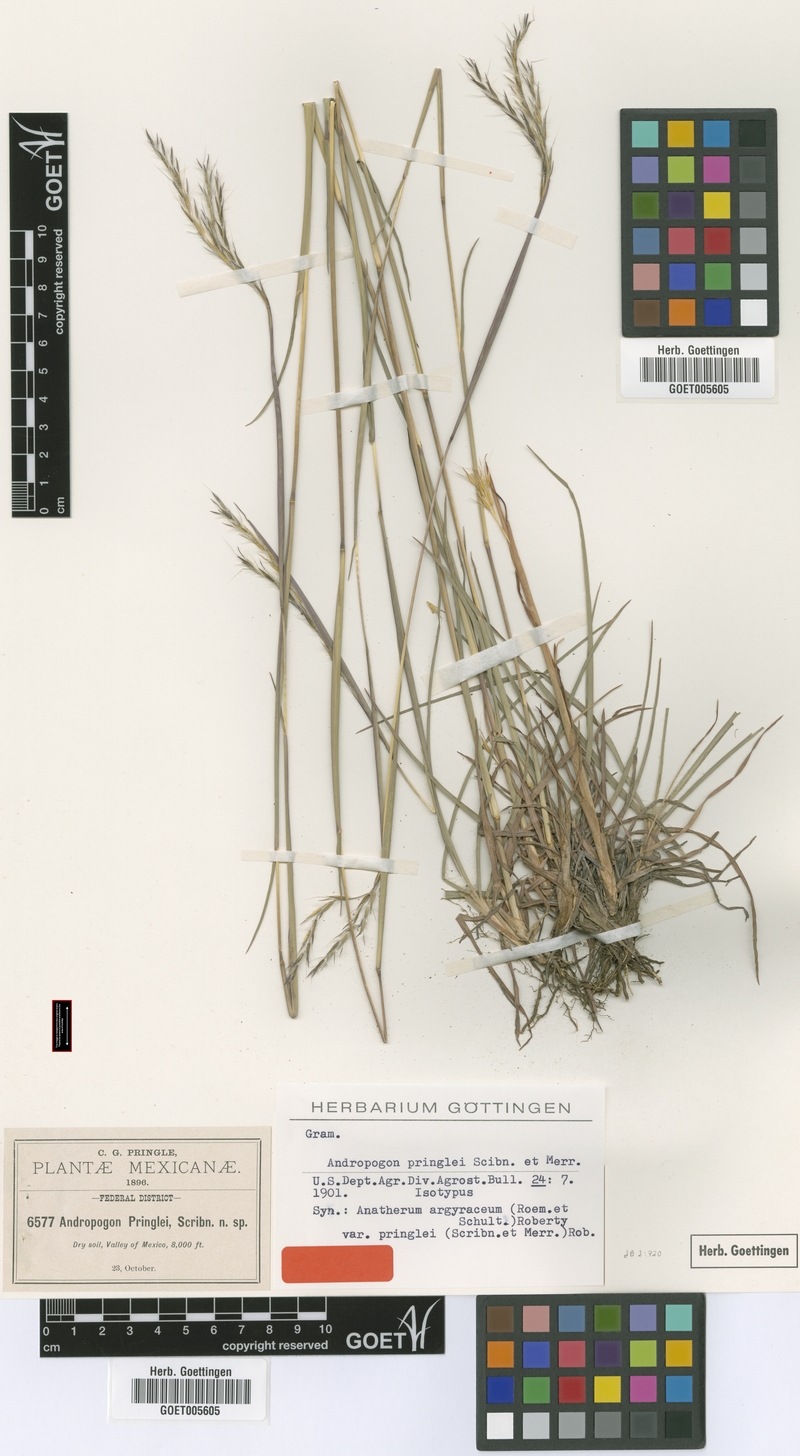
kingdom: Plantae
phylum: Tracheophyta
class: Liliopsida
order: Poales
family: Poaceae
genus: Andropogon
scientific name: Andropogon pringlei
